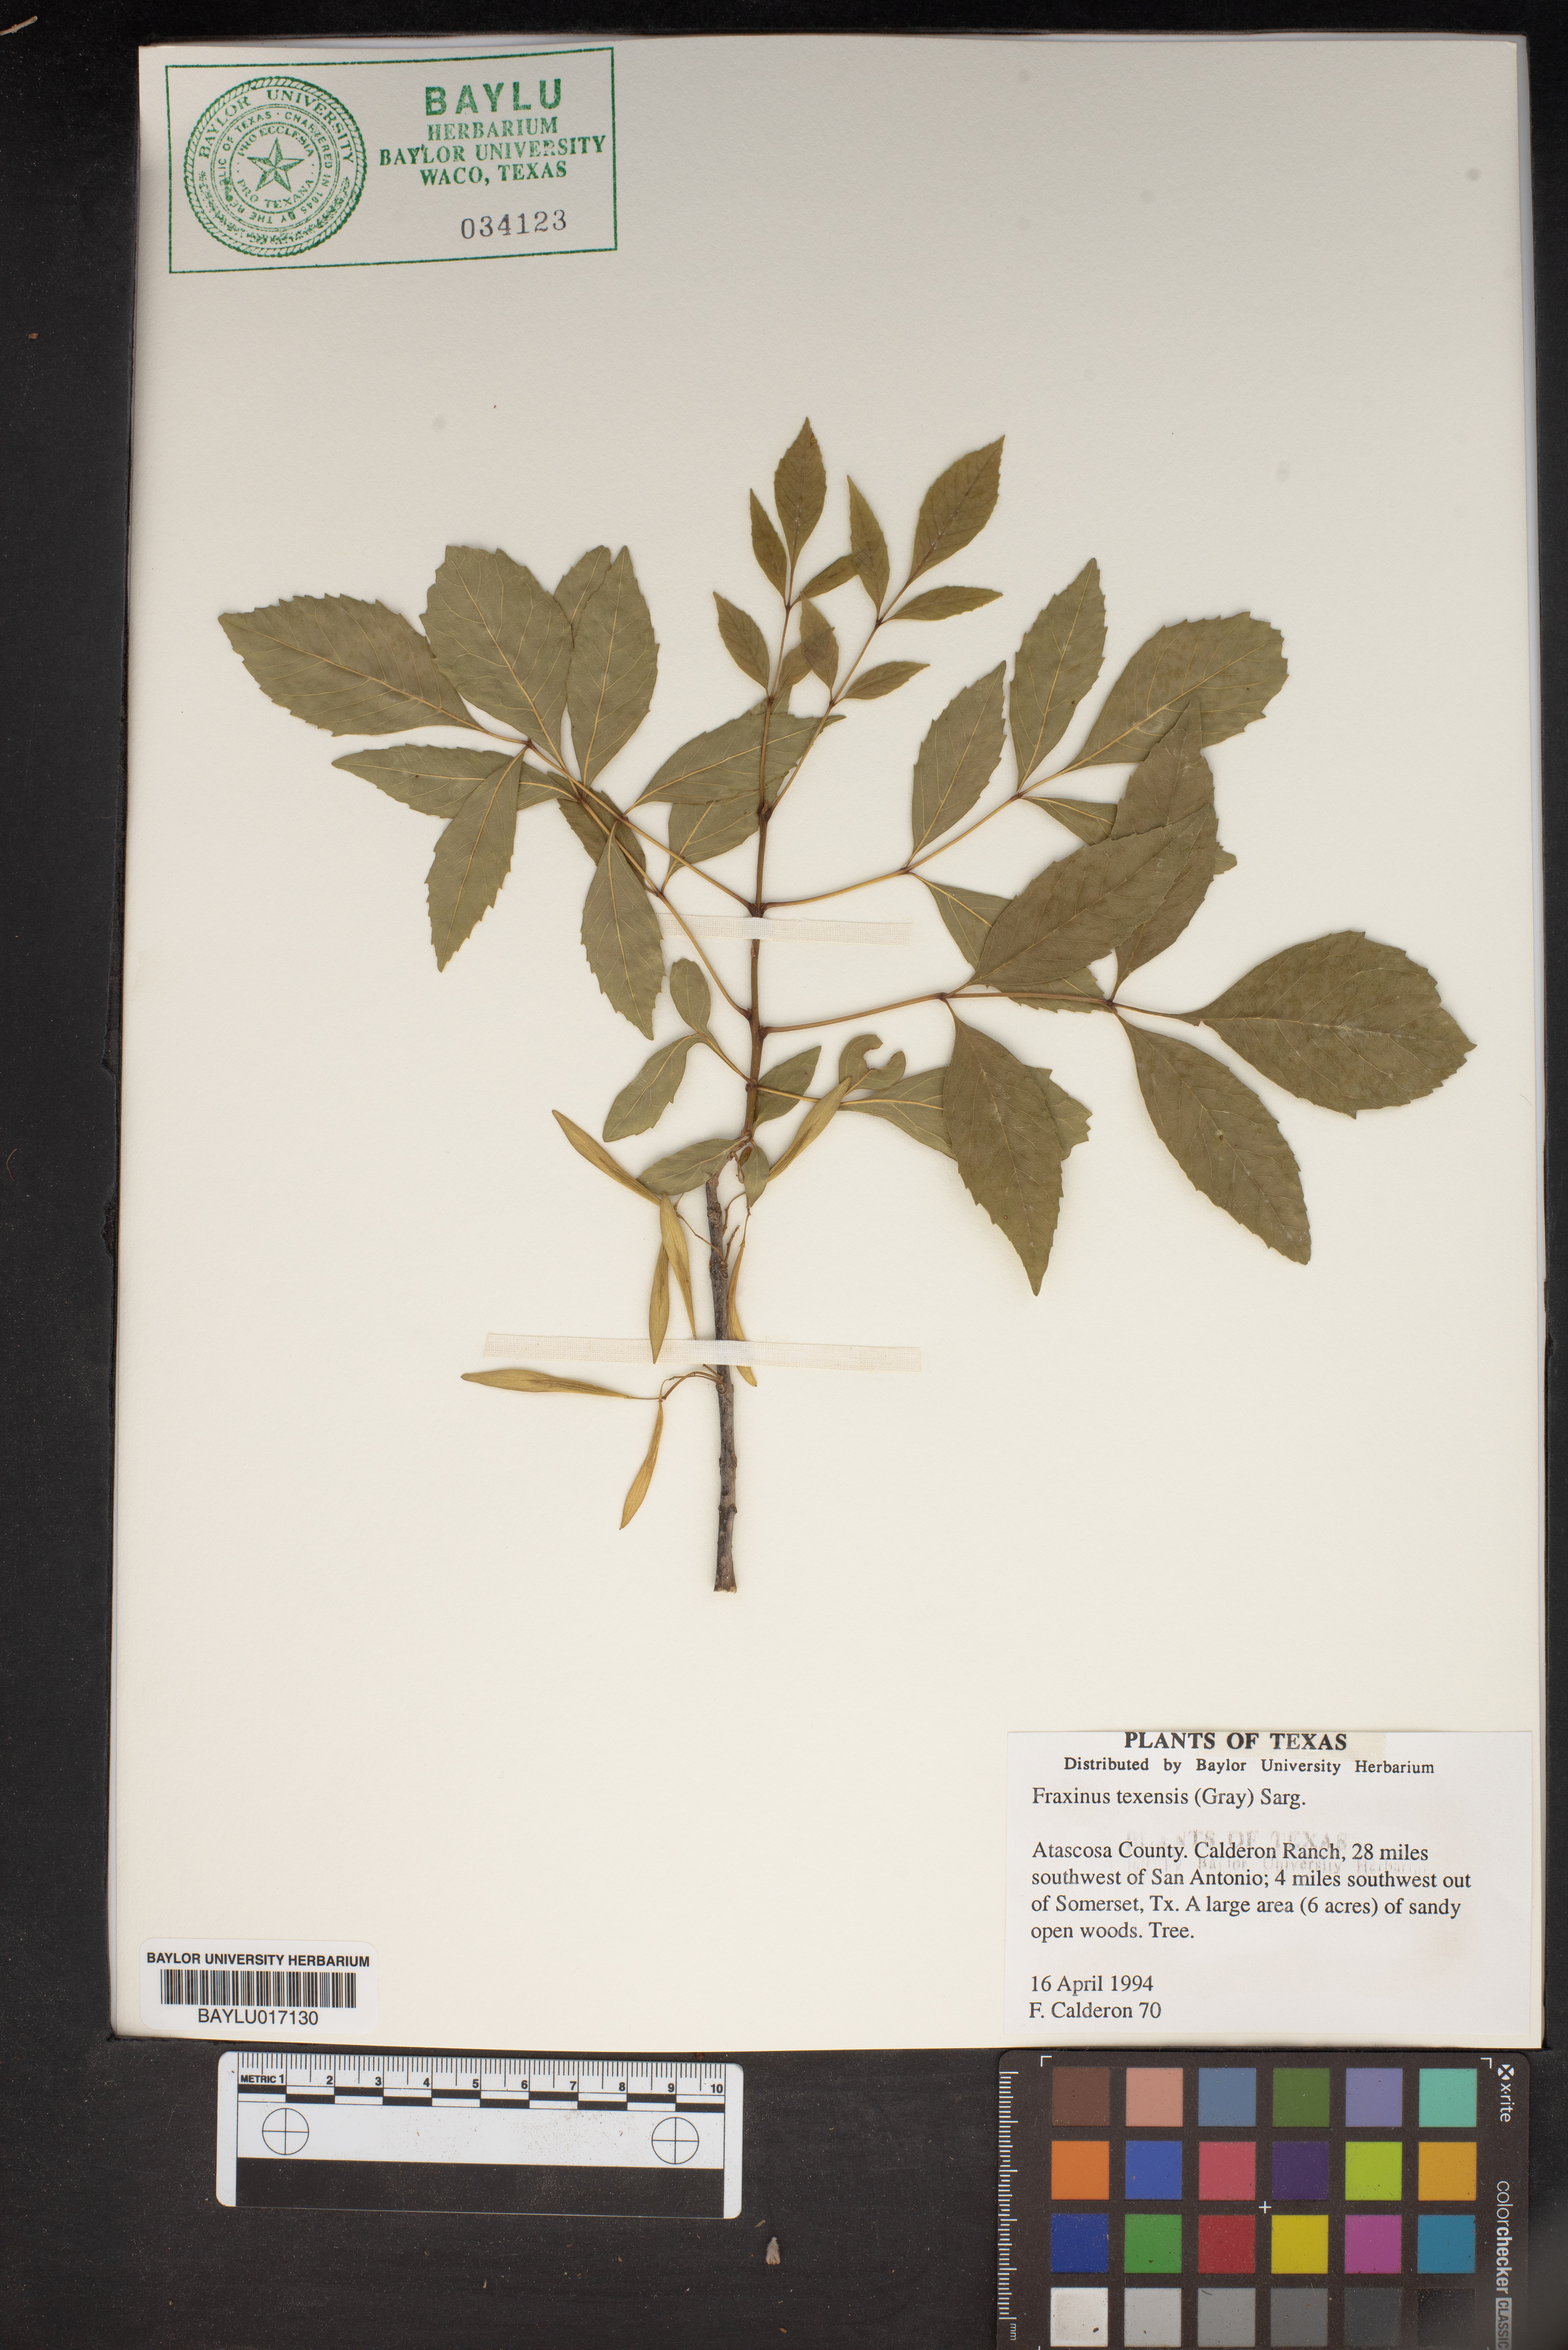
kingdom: Plantae
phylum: Tracheophyta
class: Magnoliopsida
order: Lamiales
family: Oleaceae
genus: Fraxinus
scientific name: Fraxinus albicans
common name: Texas ash
